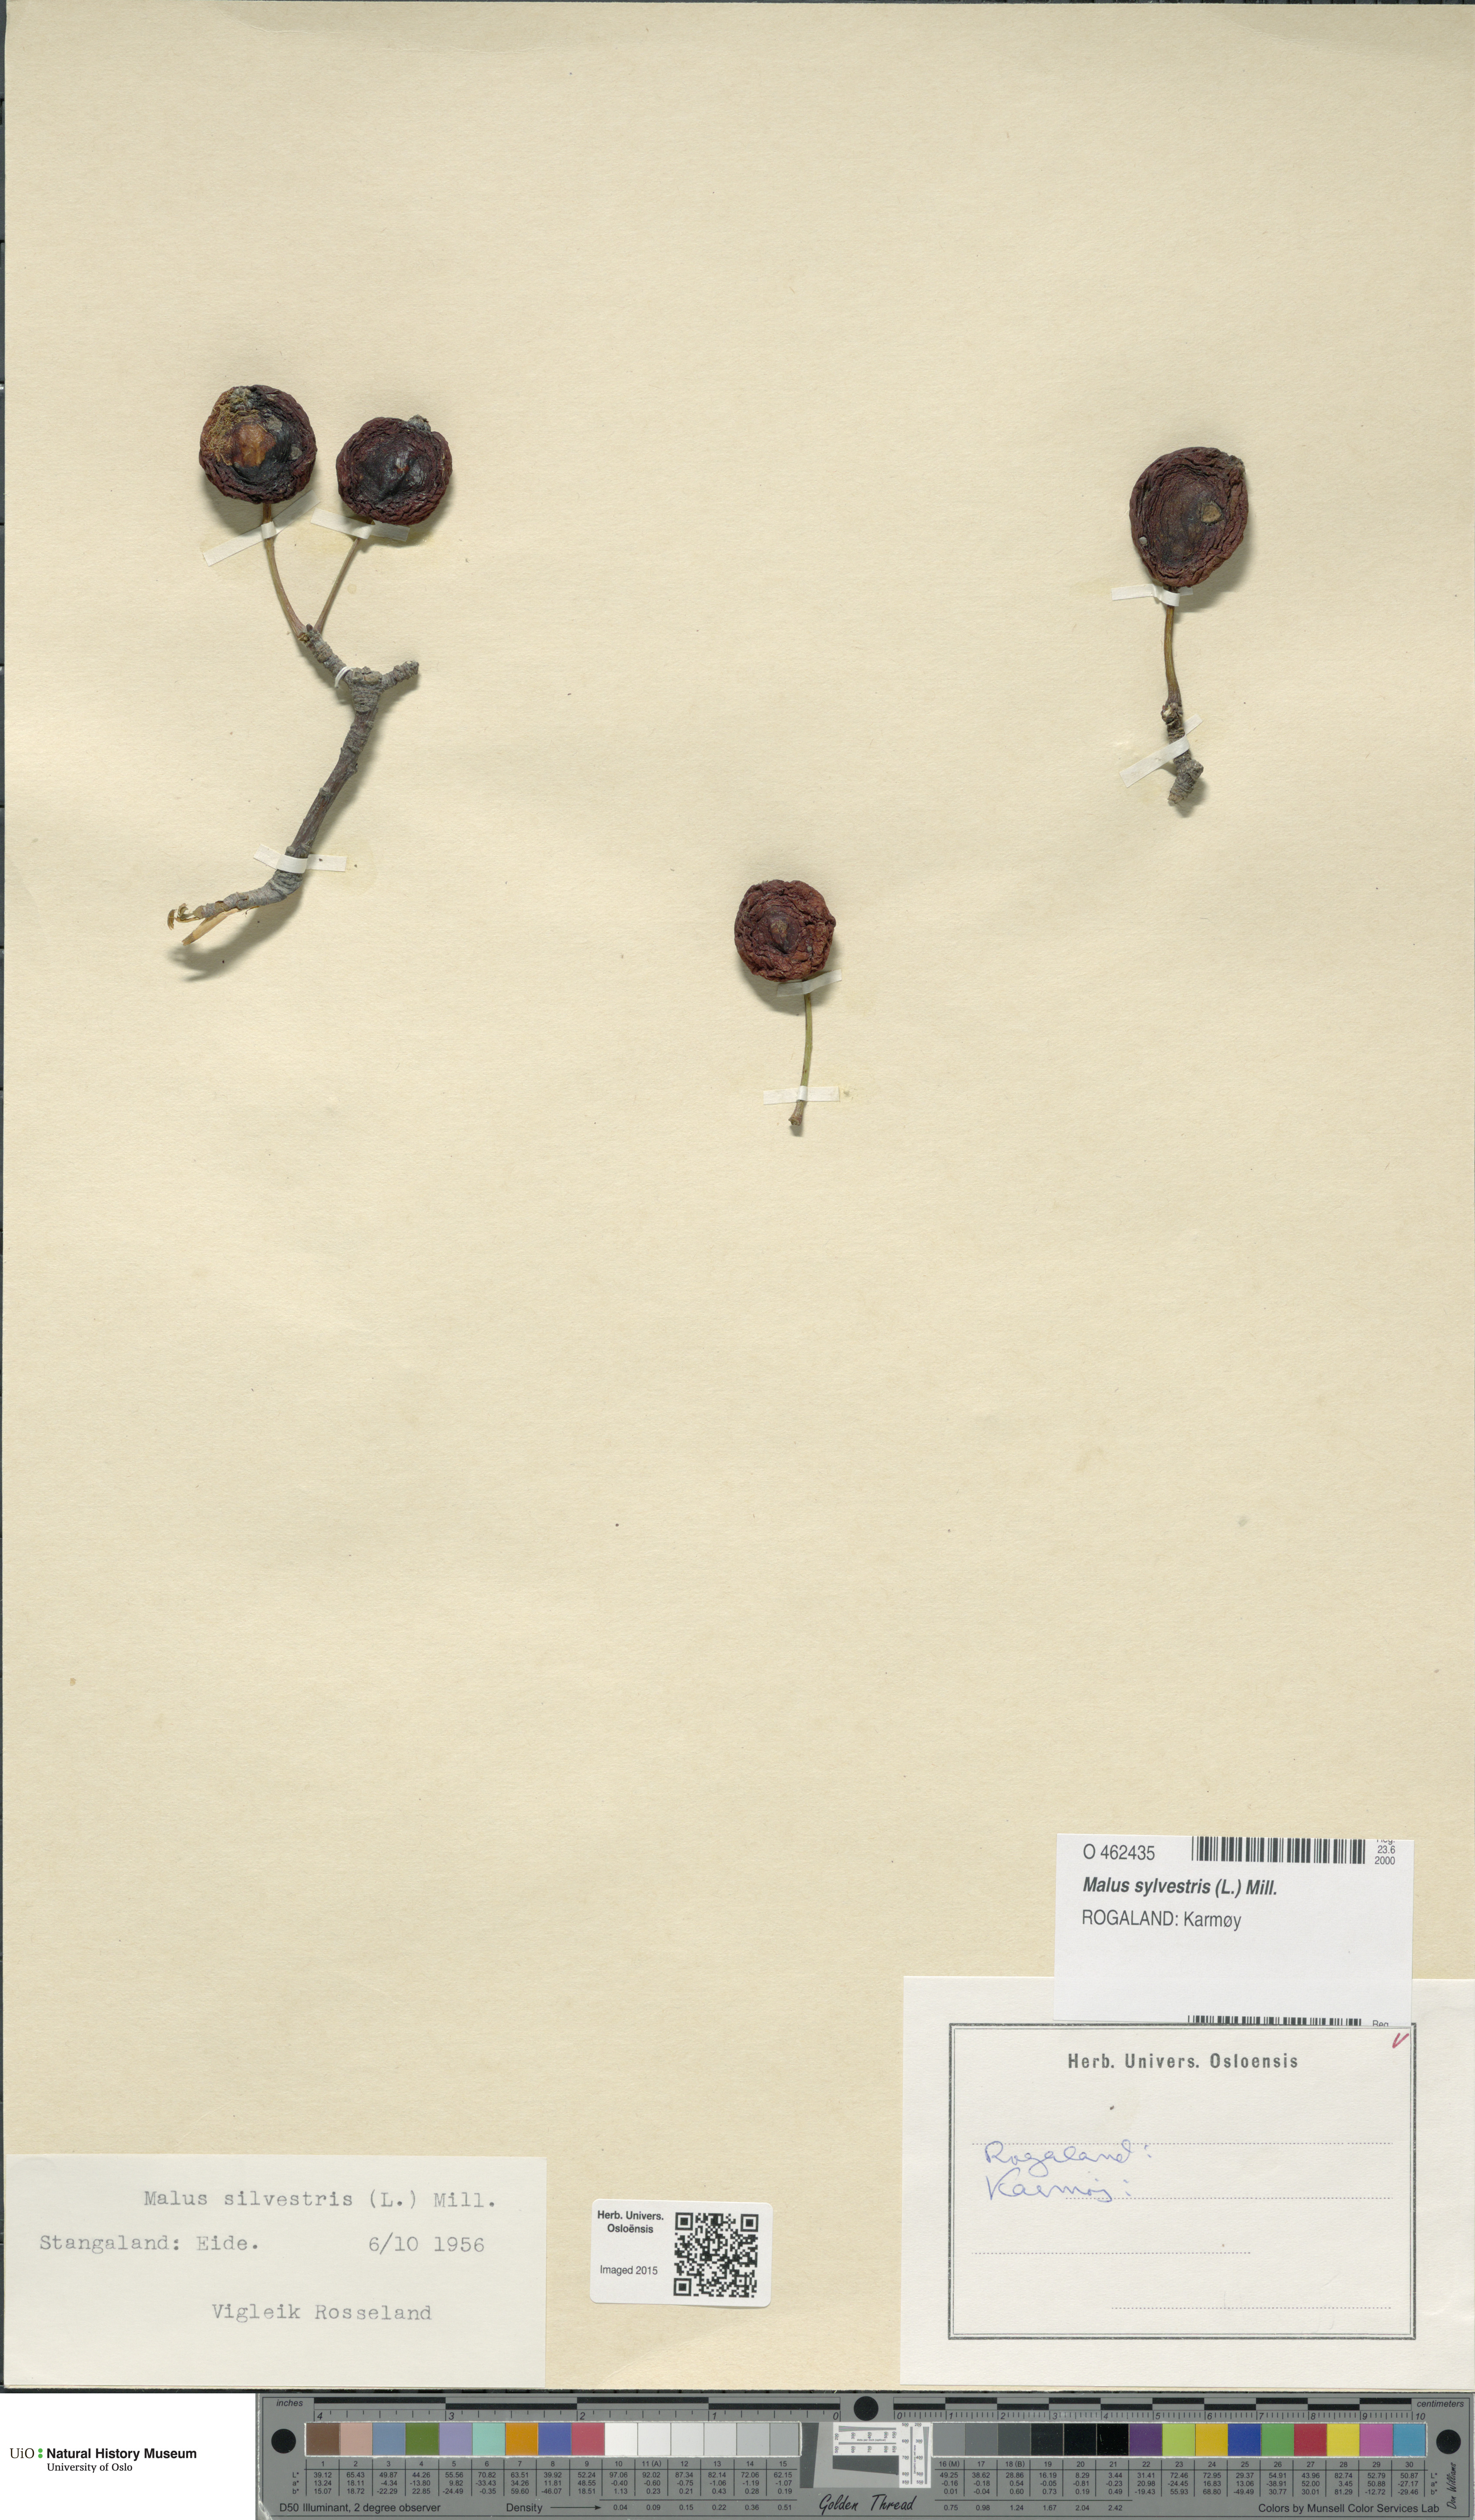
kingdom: Plantae
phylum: Tracheophyta
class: Magnoliopsida
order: Rosales
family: Rosaceae
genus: Malus
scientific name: Malus sylvestris
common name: Crab apple
